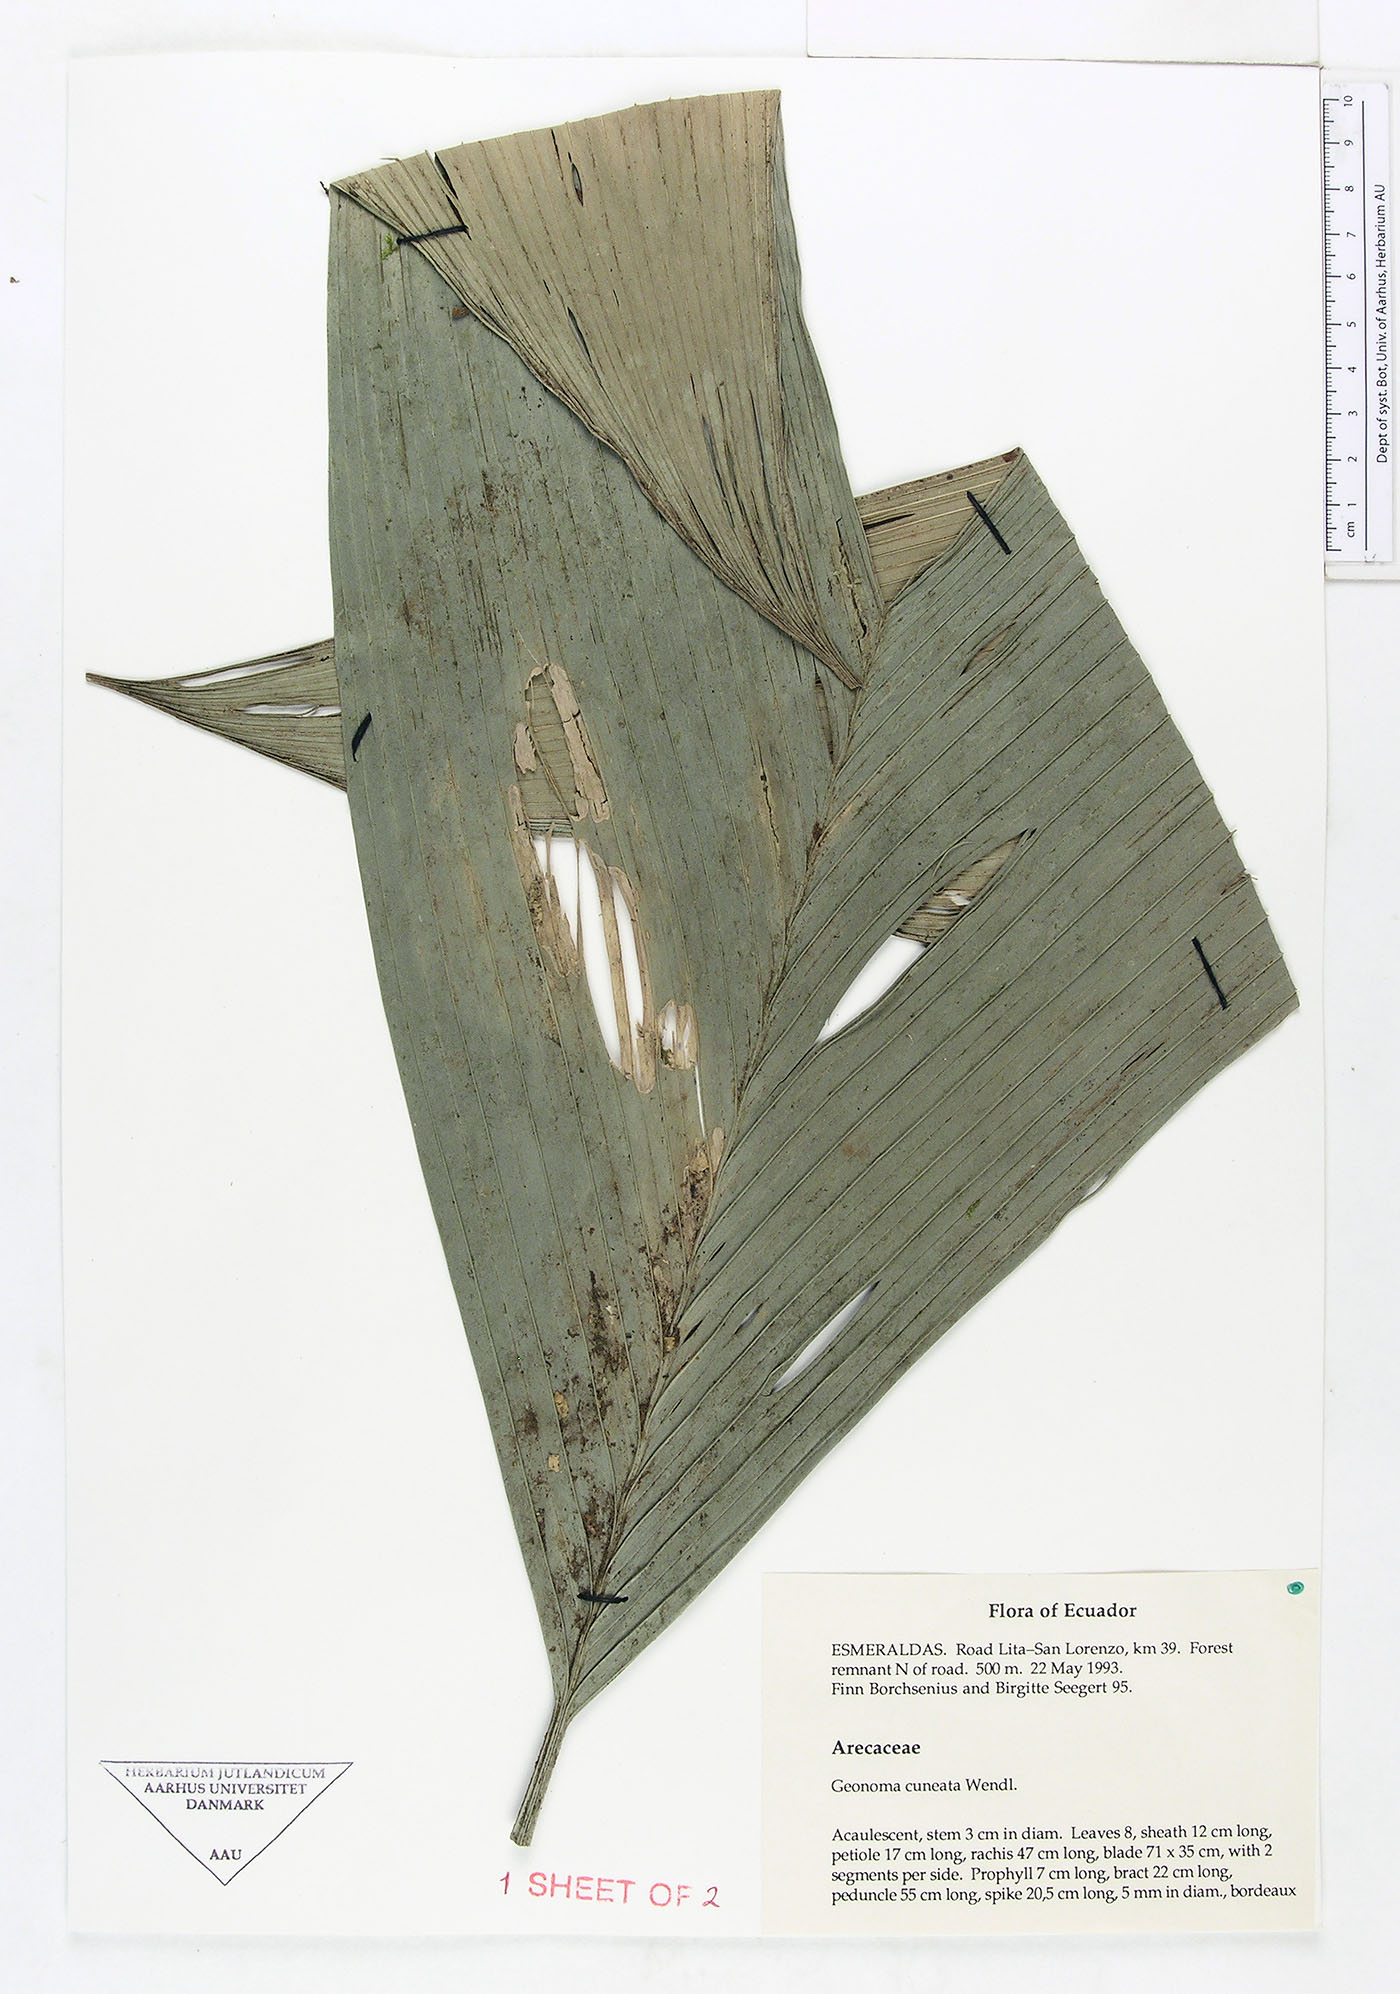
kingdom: Plantae
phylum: Tracheophyta
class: Liliopsida
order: Arecales
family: Arecaceae
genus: Geonoma
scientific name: Geonoma cuneata
